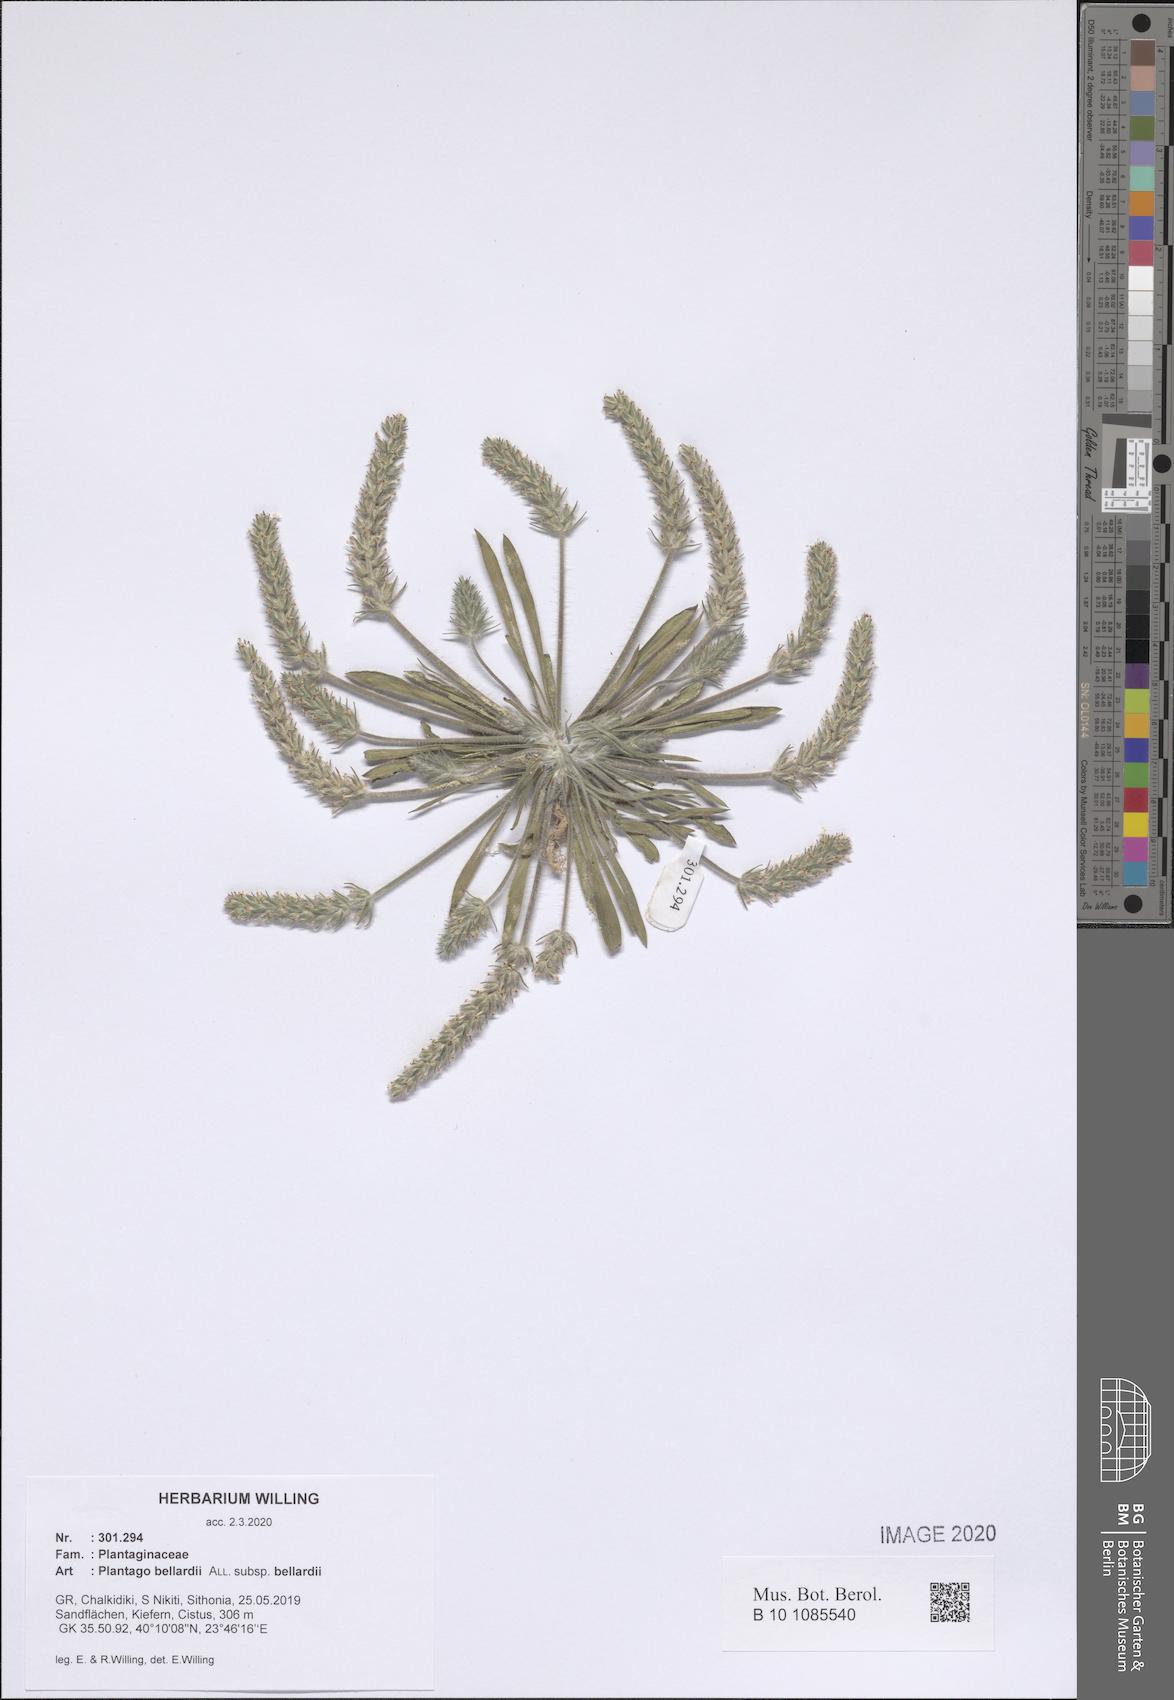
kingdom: Plantae
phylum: Tracheophyta
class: Magnoliopsida
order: Lamiales
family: Plantaginaceae
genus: Plantago
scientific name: Plantago bellardii
